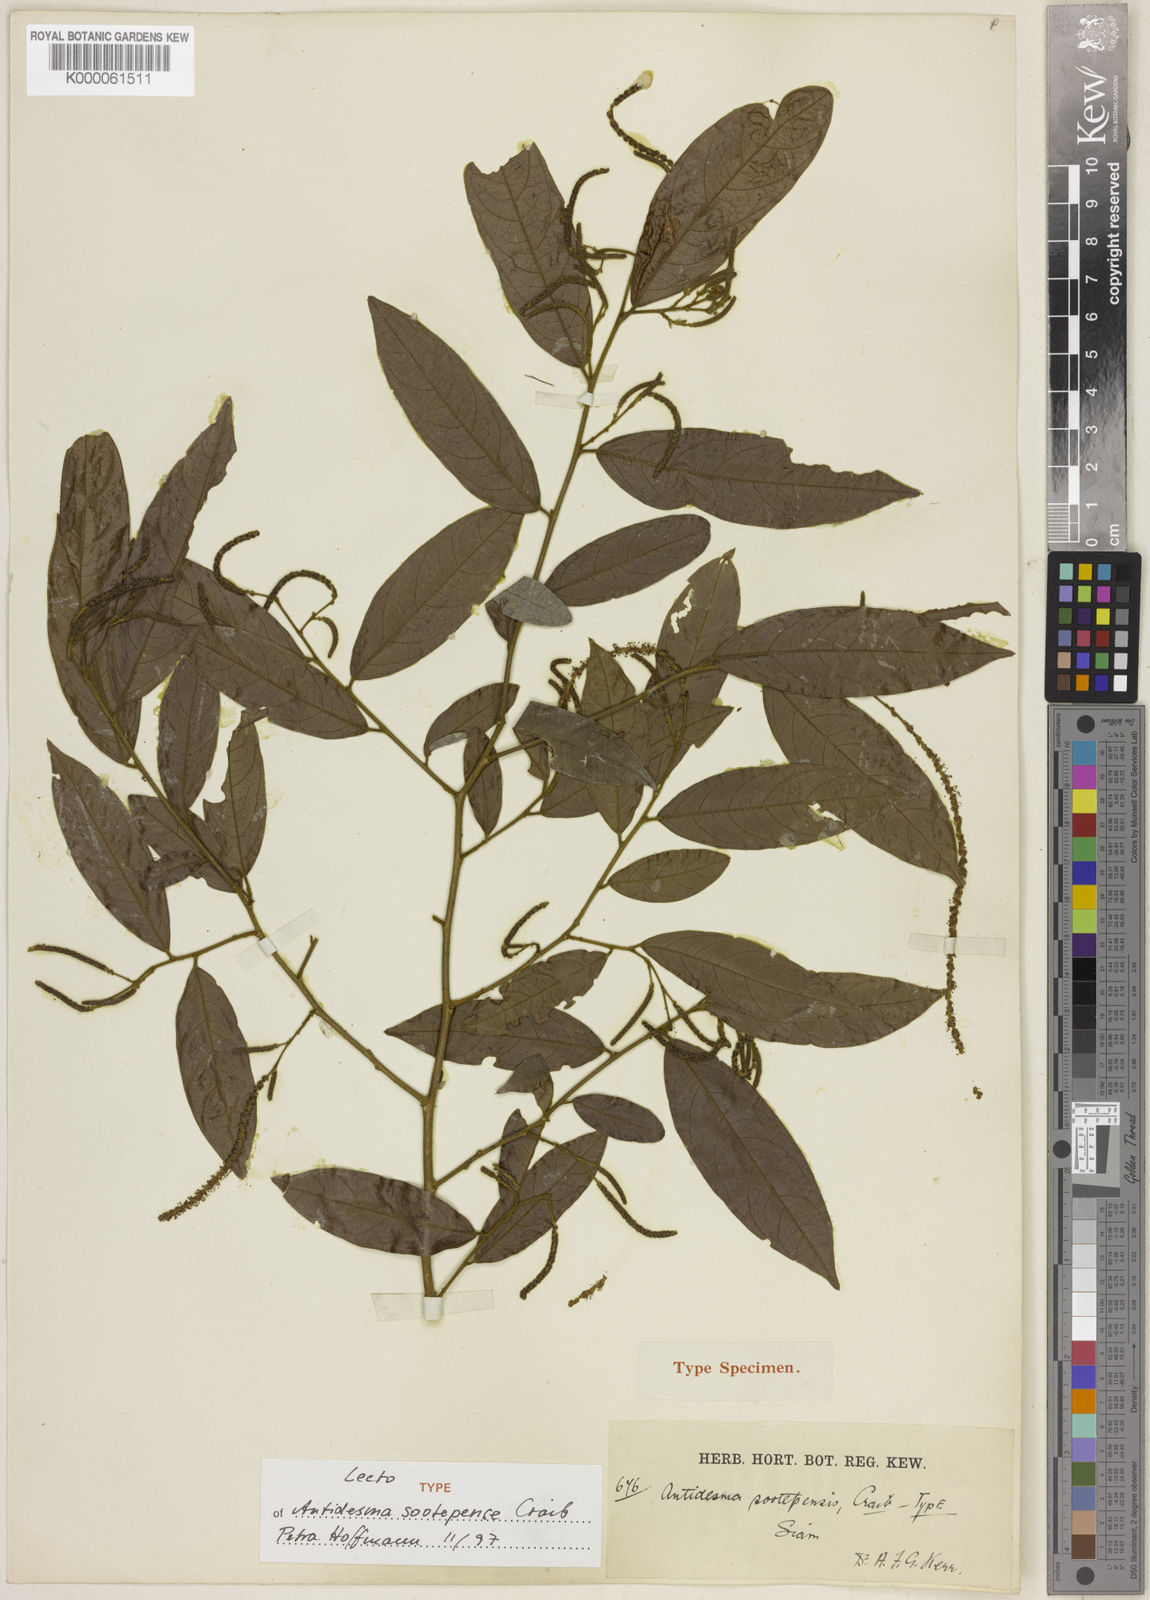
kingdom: Plantae
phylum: Tracheophyta
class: Magnoliopsida
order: Malpighiales
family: Phyllanthaceae
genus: Antidesma
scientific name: Antidesma sootepense
